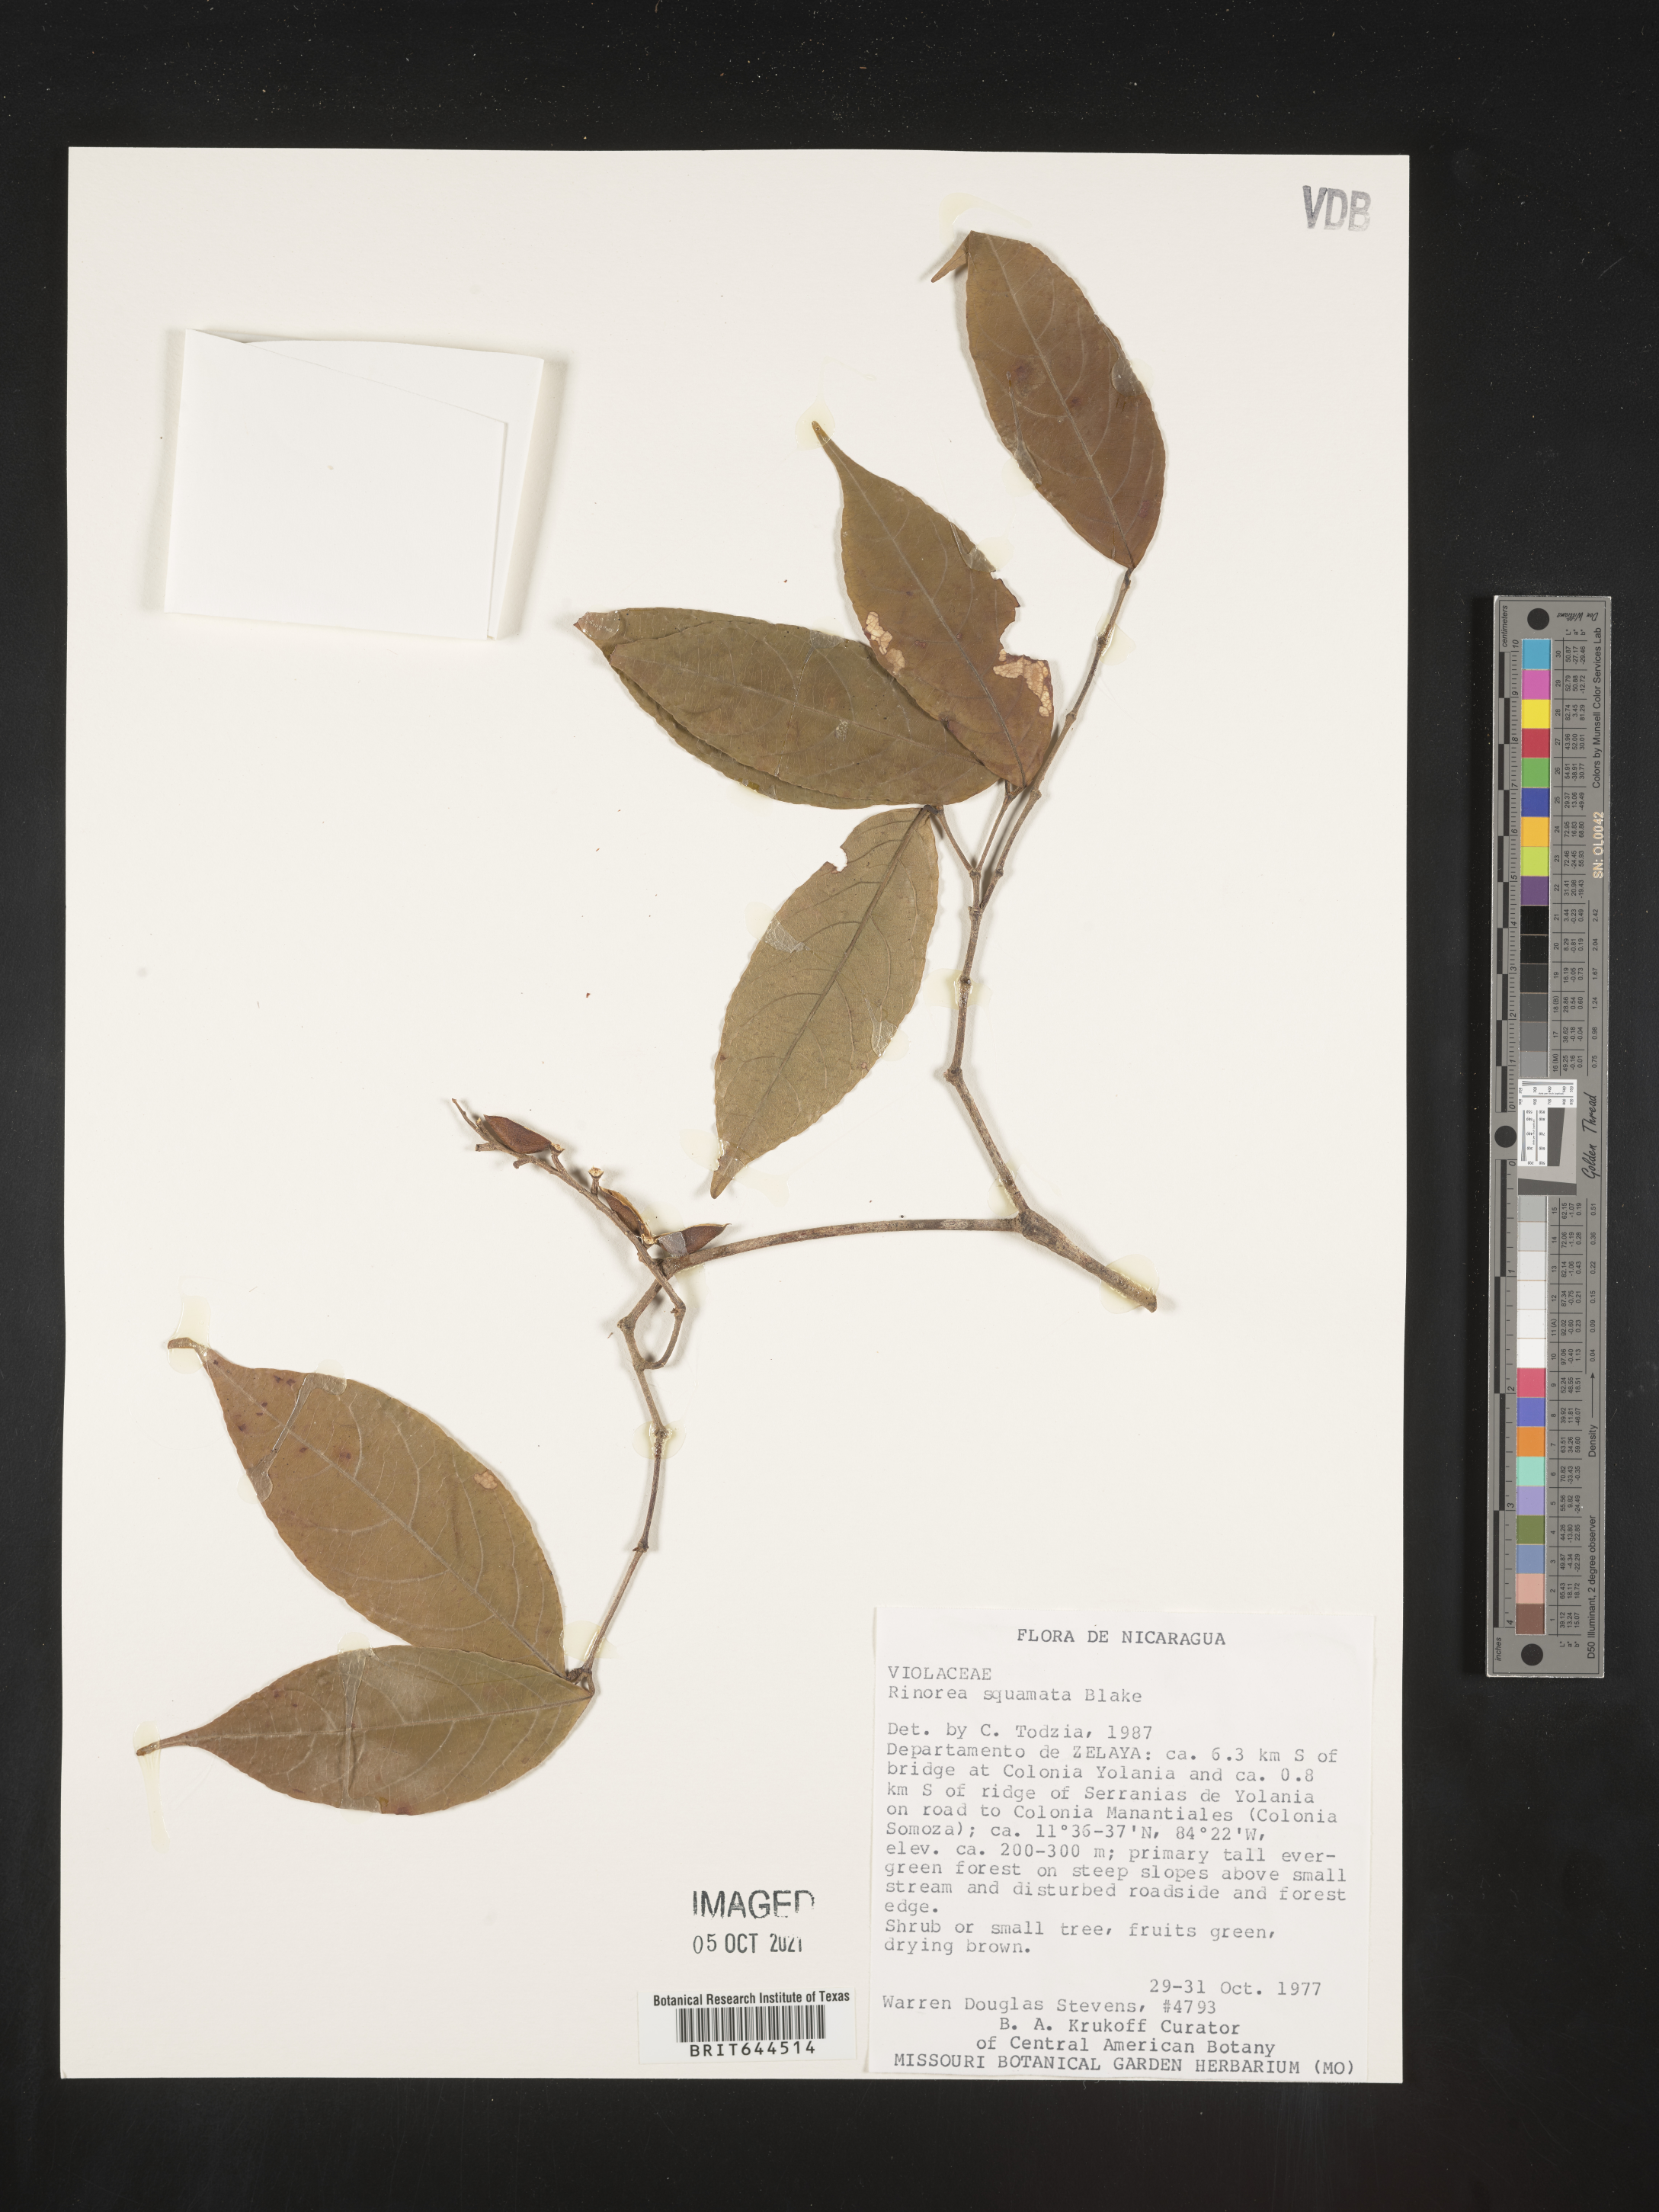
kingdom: Plantae
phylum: Tracheophyta
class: Magnoliopsida
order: Malpighiales
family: Violaceae
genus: Rinorea
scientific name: Rinorea
